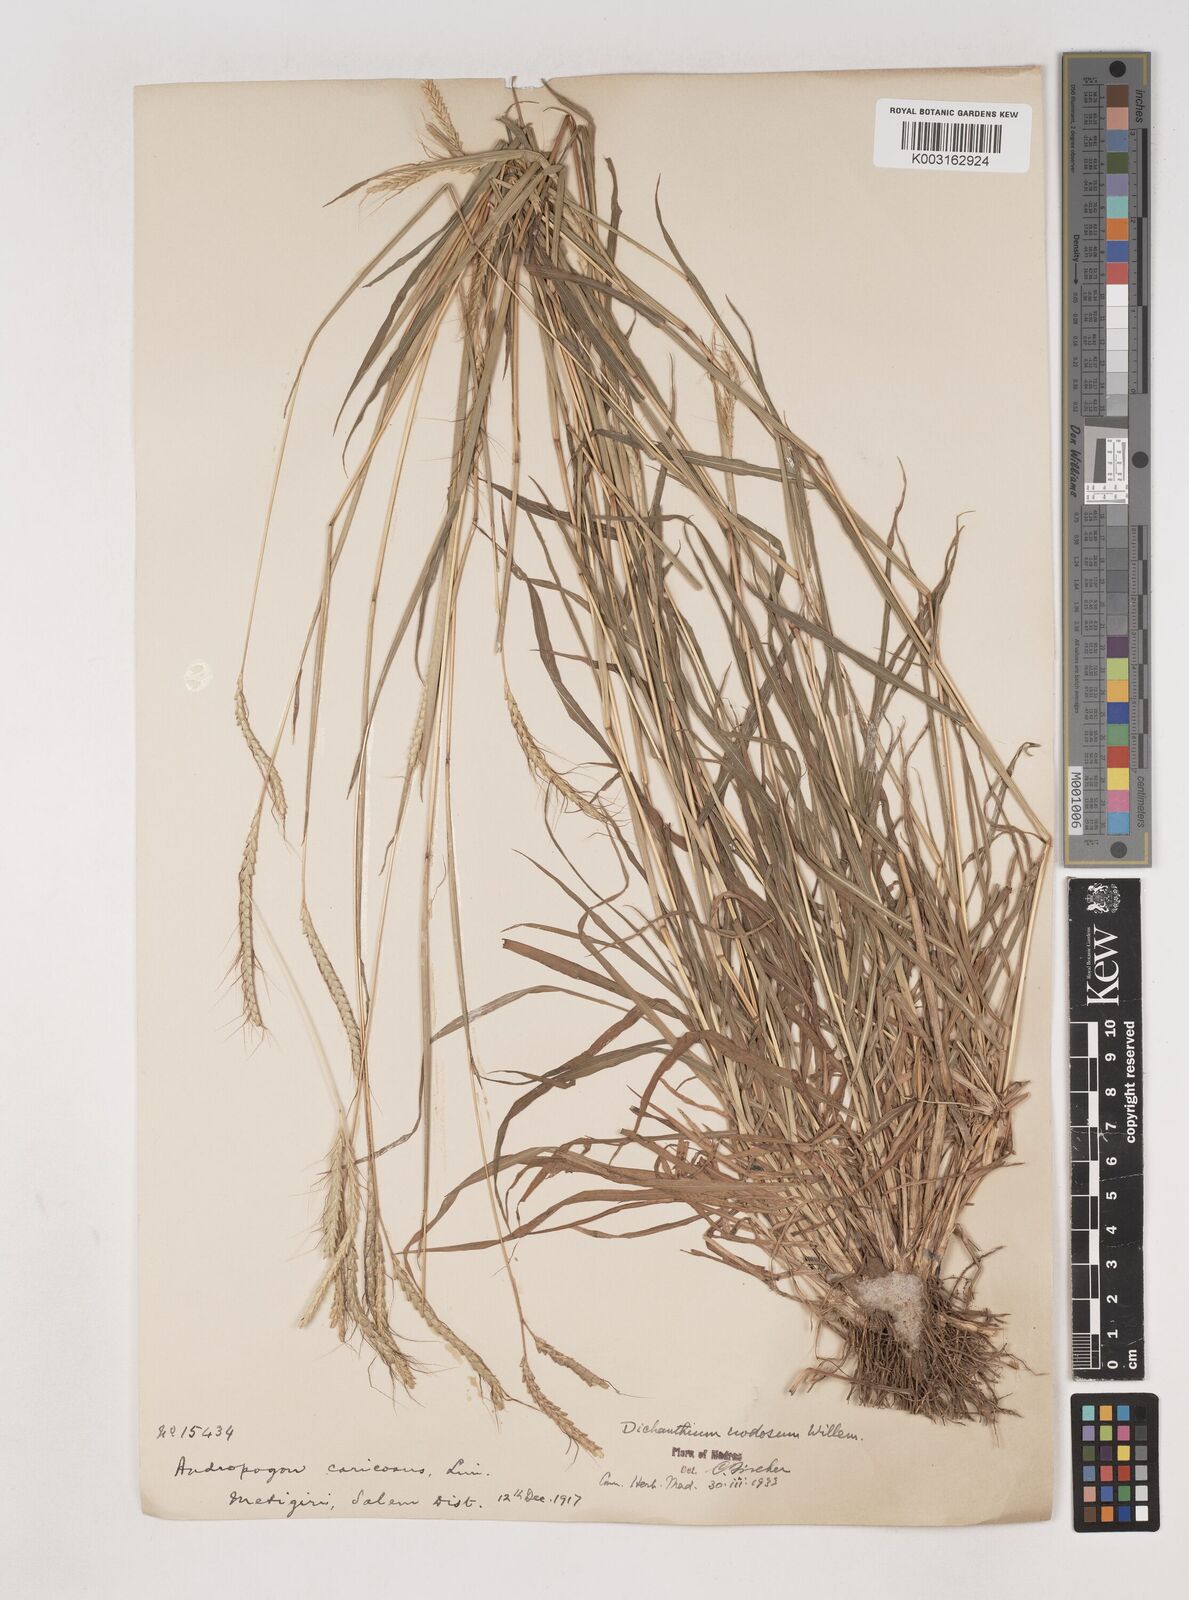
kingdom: Plantae
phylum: Tracheophyta
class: Liliopsida
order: Poales
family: Poaceae
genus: Dichanthium
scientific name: Dichanthium aristatum
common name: Angleton bluestem
